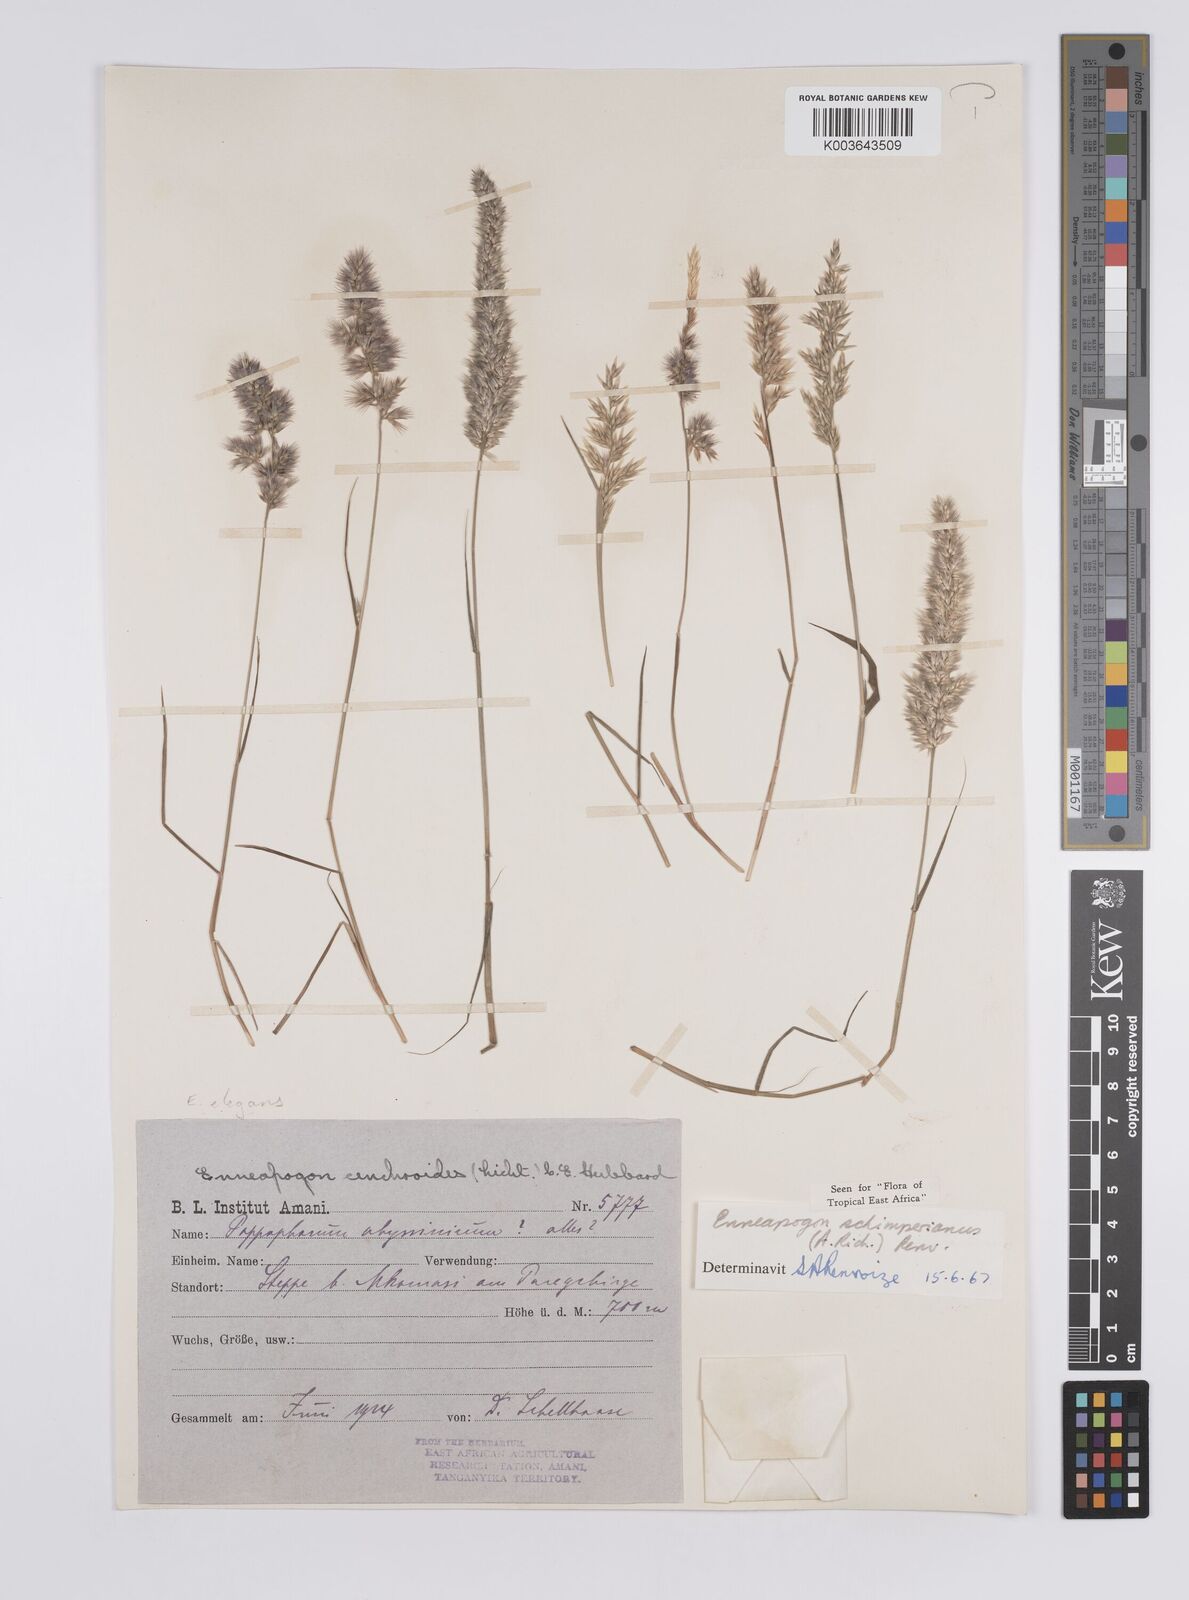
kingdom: Plantae
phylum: Tracheophyta
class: Liliopsida
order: Poales
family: Poaceae
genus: Enneapogon
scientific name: Enneapogon persicus
